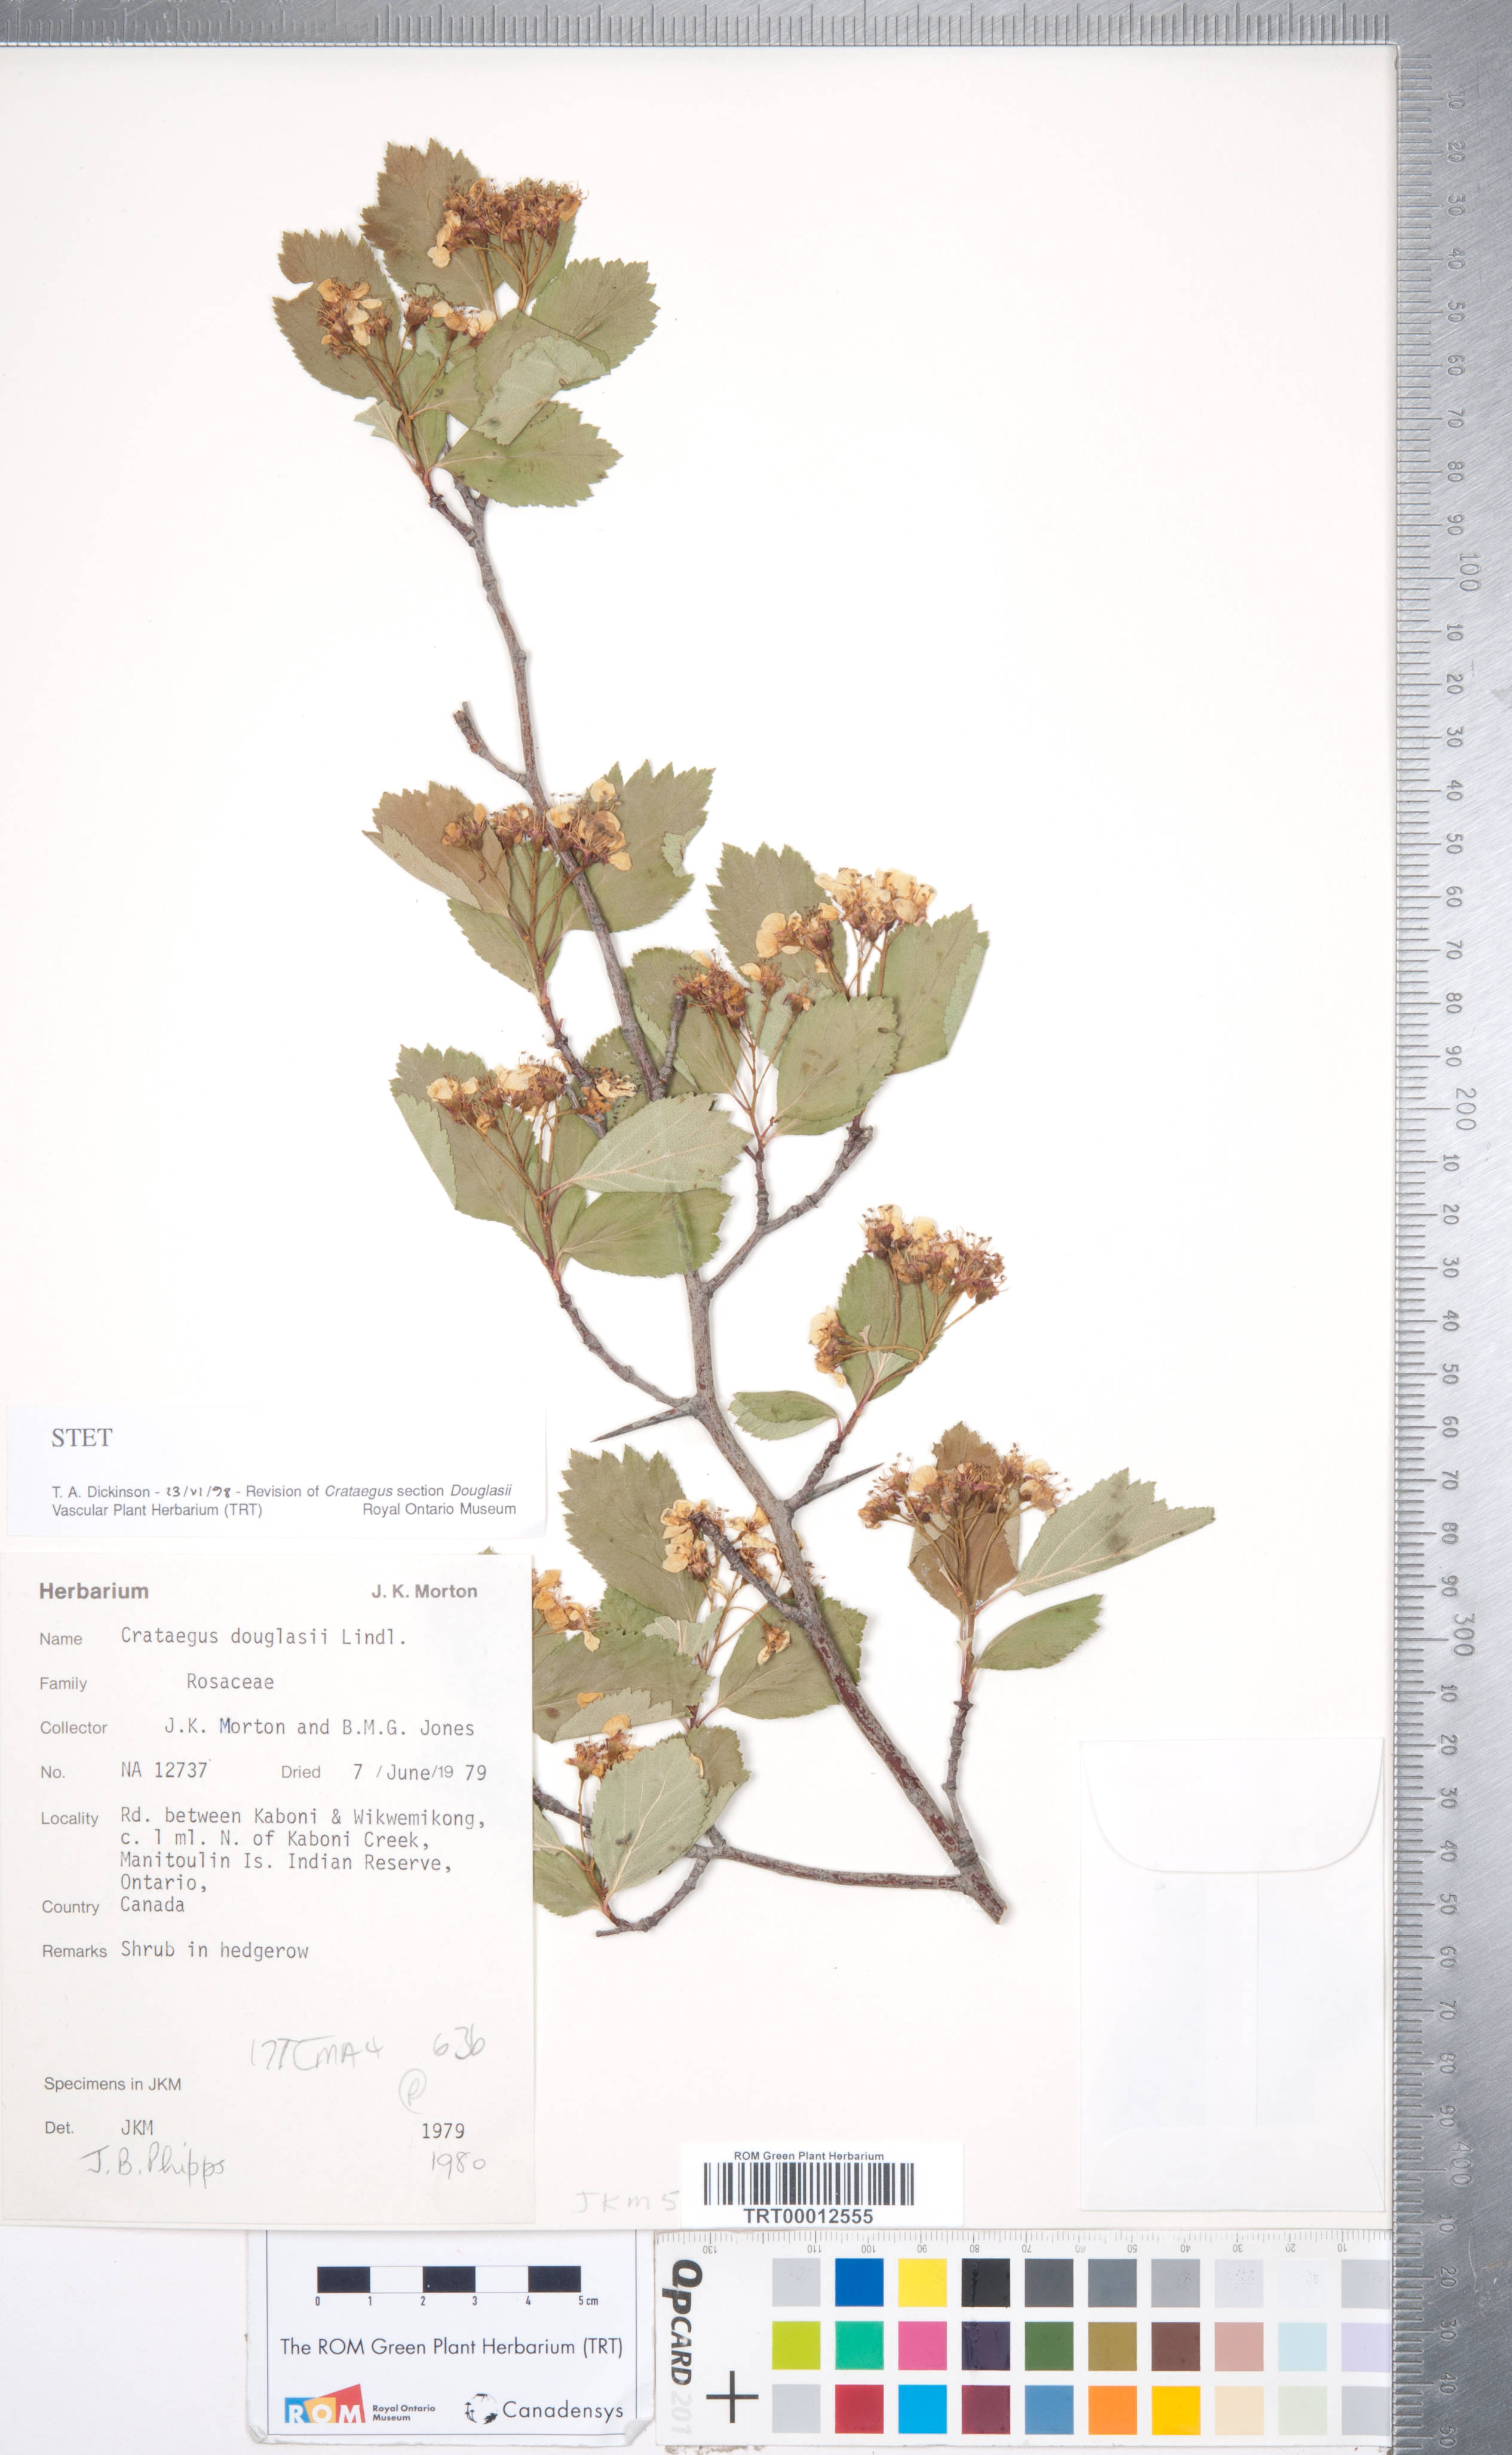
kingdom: Plantae
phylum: Tracheophyta
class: Magnoliopsida
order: Rosales
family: Rosaceae
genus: Crataegus
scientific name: Crataegus douglasii
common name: Black hawthorn
